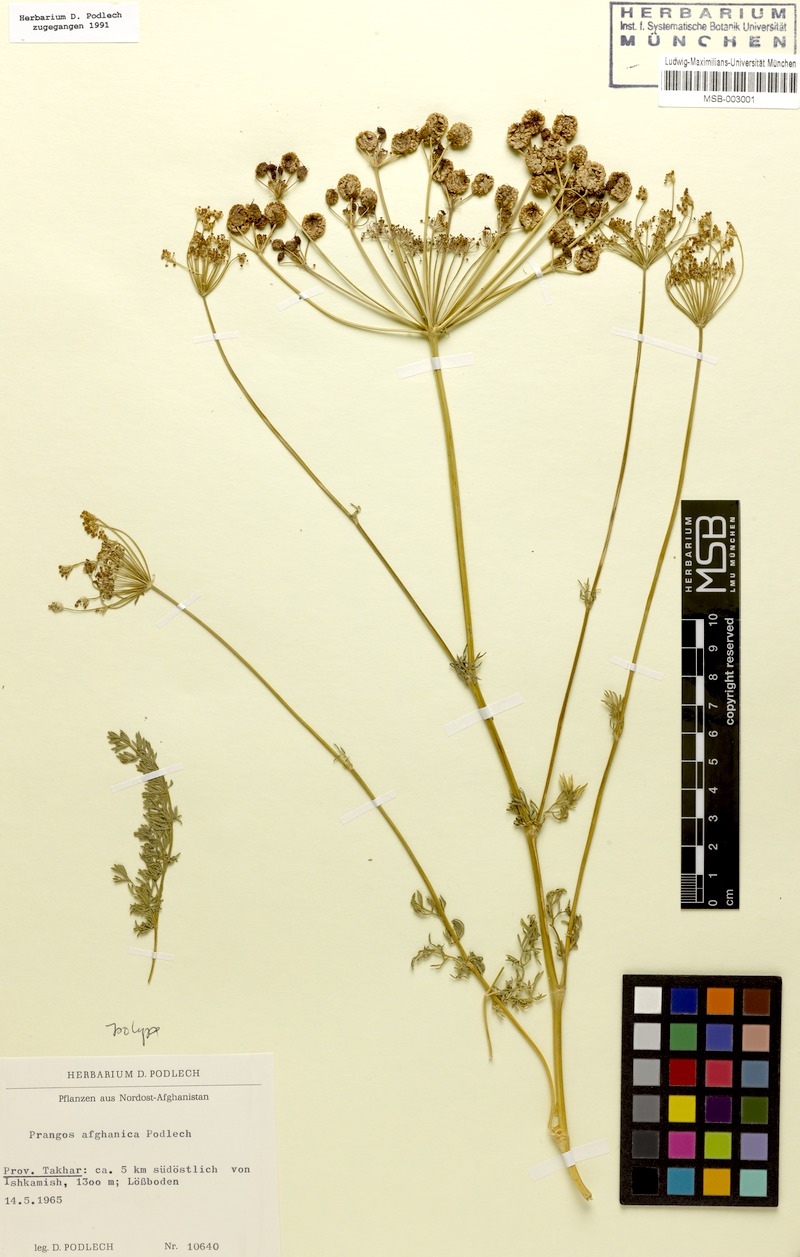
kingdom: Plantae
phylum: Tracheophyta
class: Magnoliopsida
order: Apiales
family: Apiaceae
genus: Prangos
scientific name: Prangos bucharica
